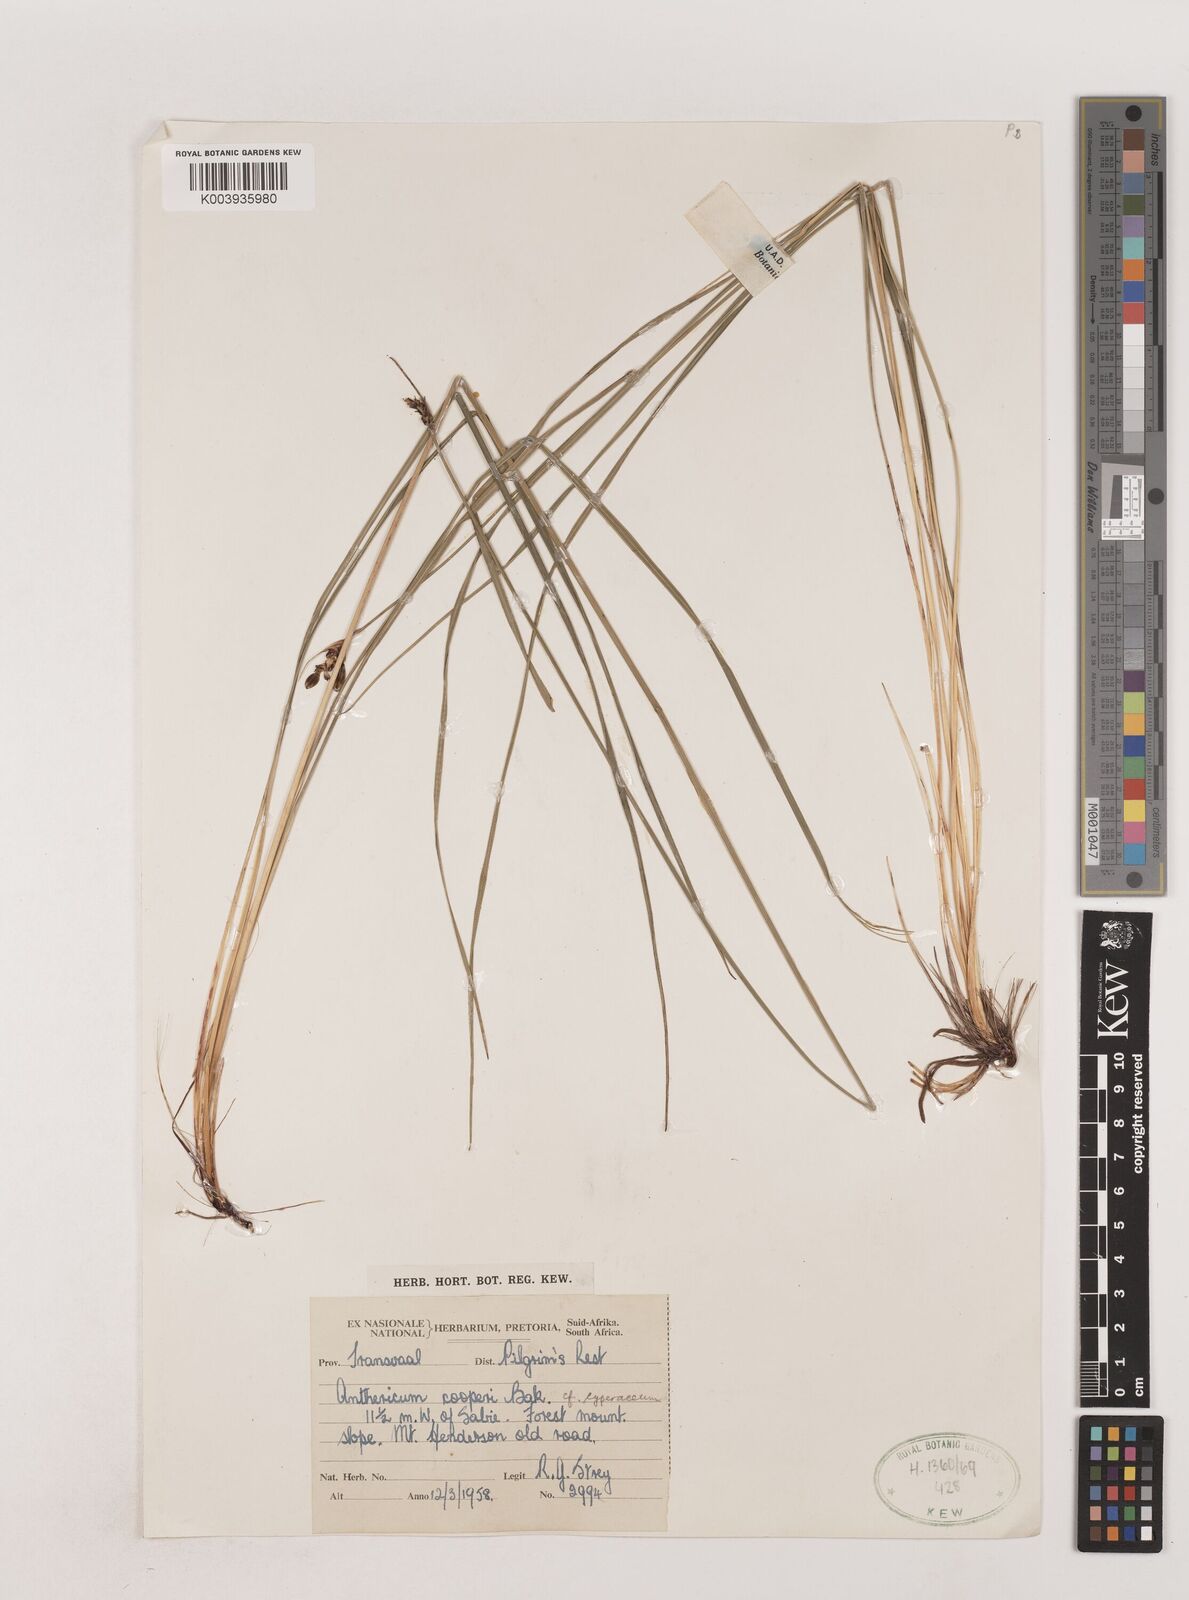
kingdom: Plantae
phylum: Tracheophyta
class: Liliopsida
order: Asparagales
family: Asparagaceae
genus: Chlorophytum
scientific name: Chlorophytum cooperi
